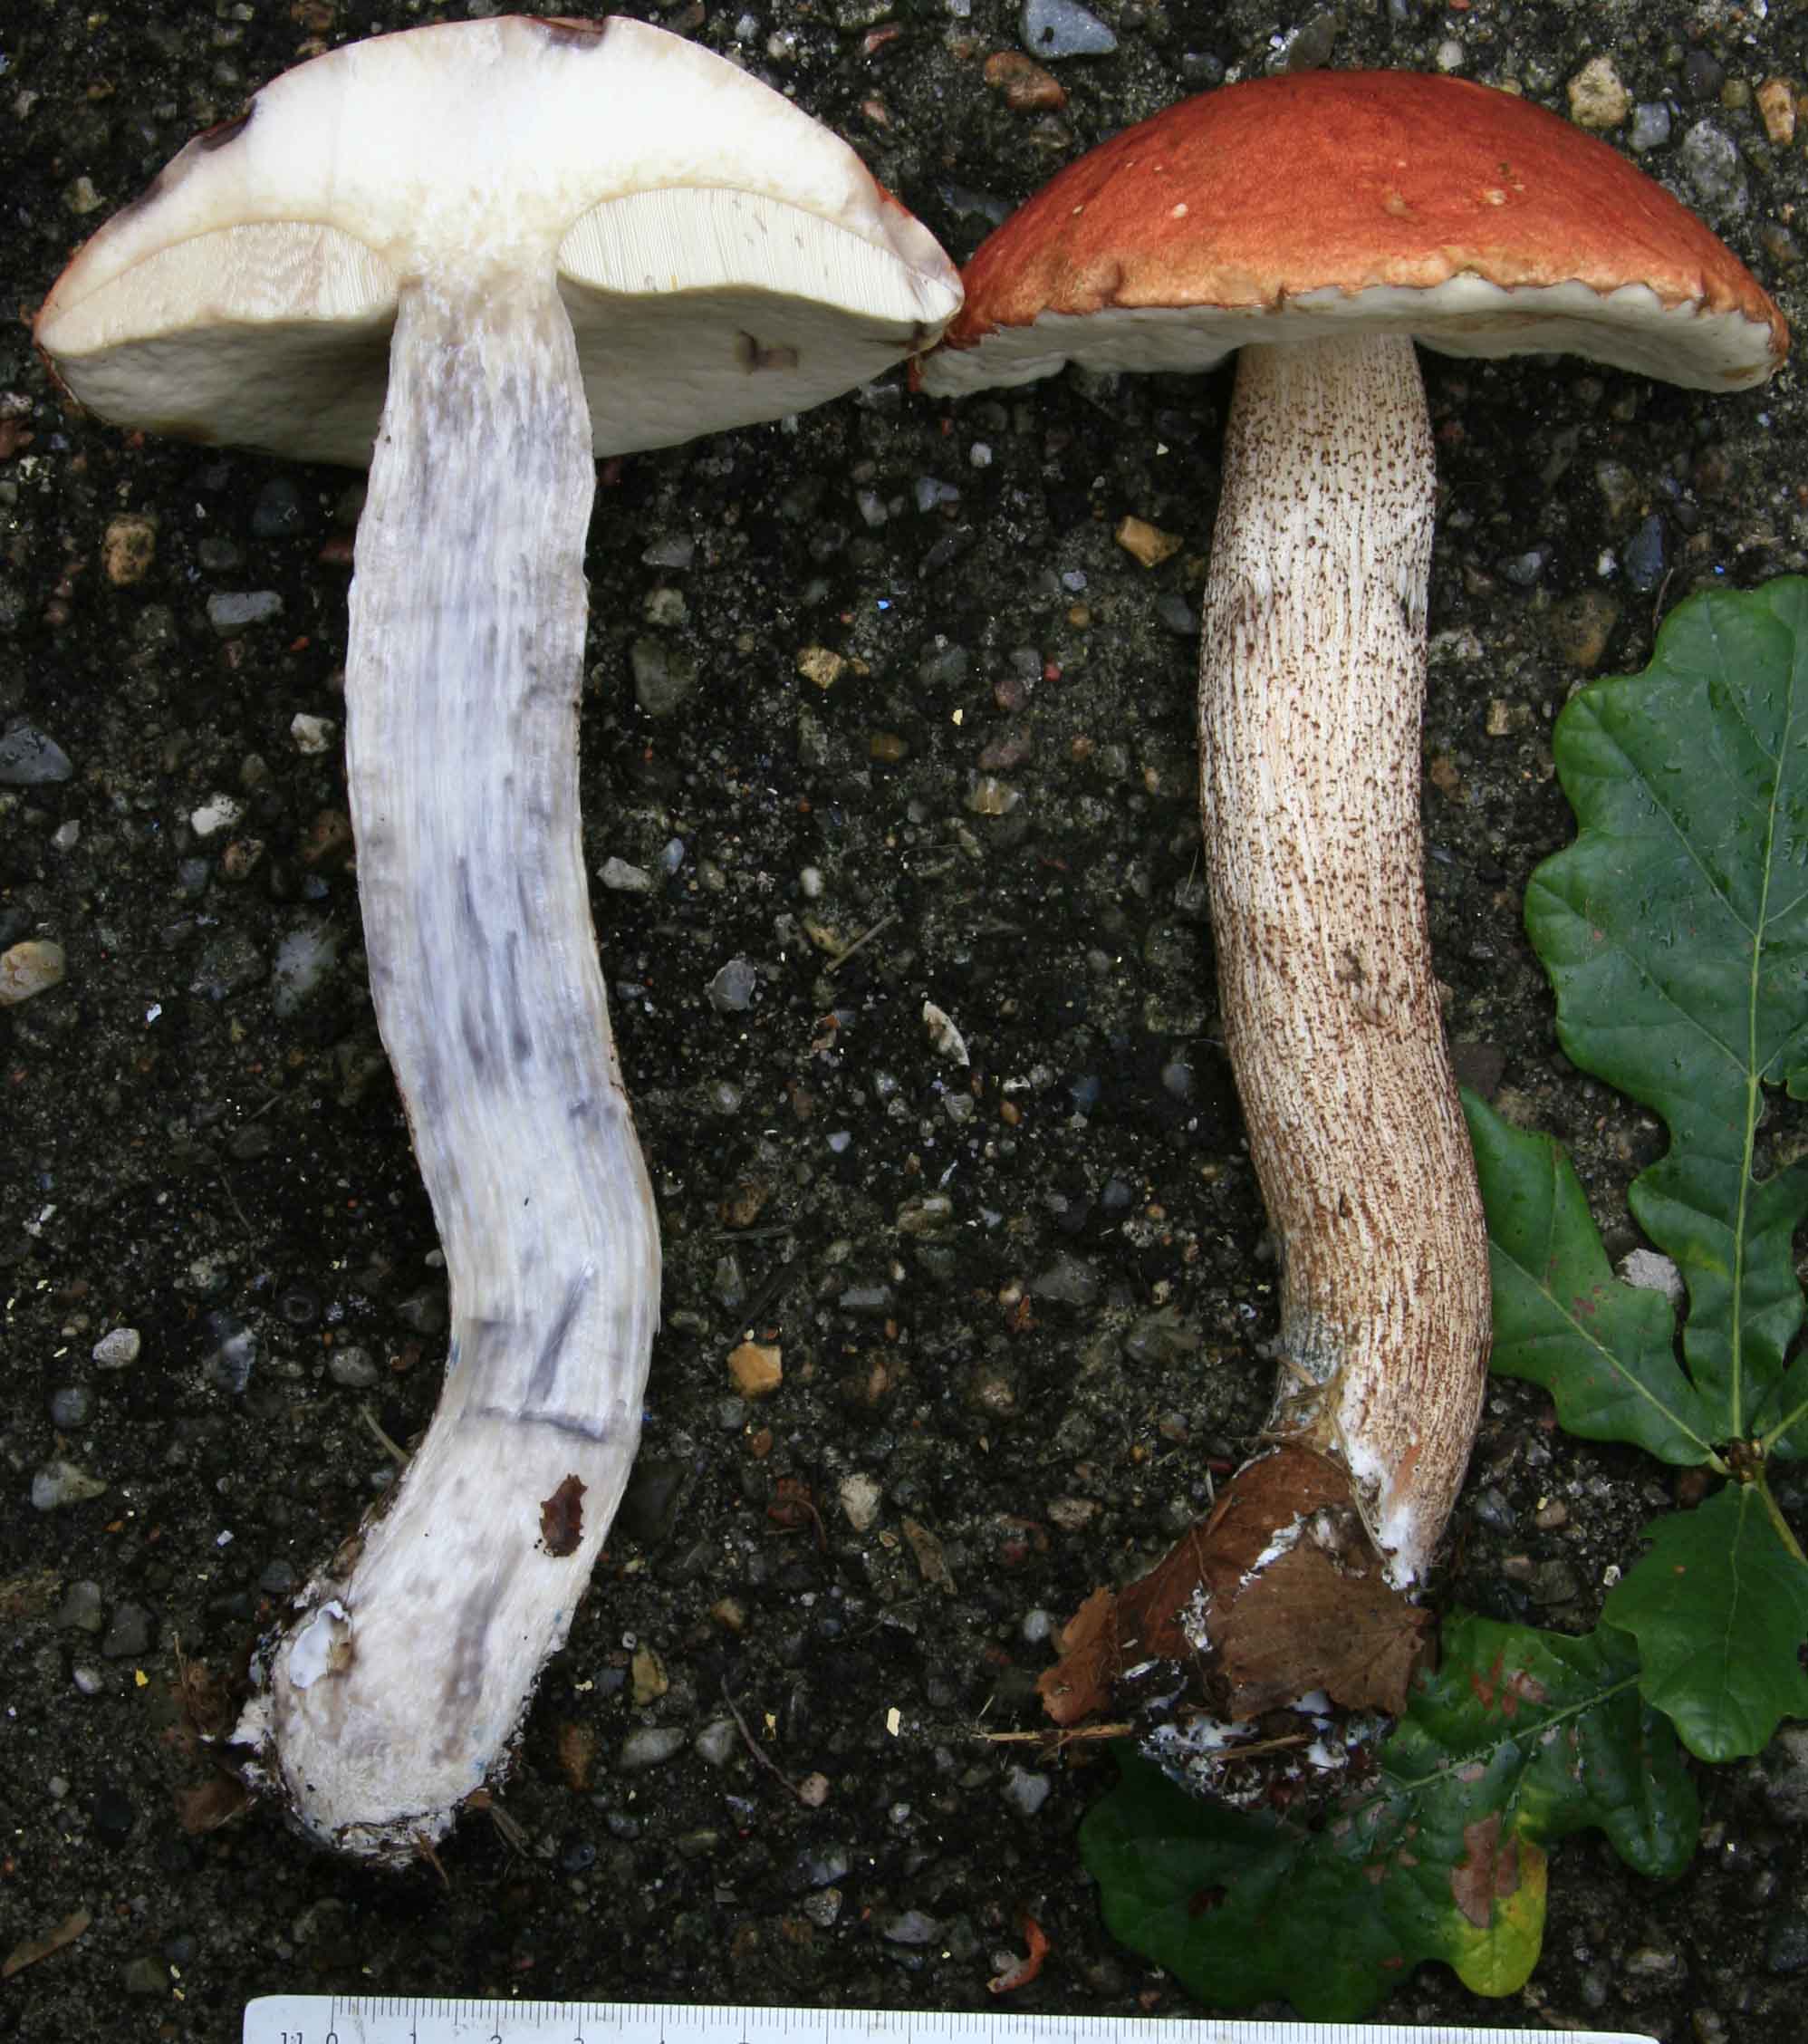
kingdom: Fungi
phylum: Basidiomycota
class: Agaricomycetes
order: Boletales
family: Boletaceae
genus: Leccinum
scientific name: Leccinum aurantiacum
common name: rustrød skælrørhat
